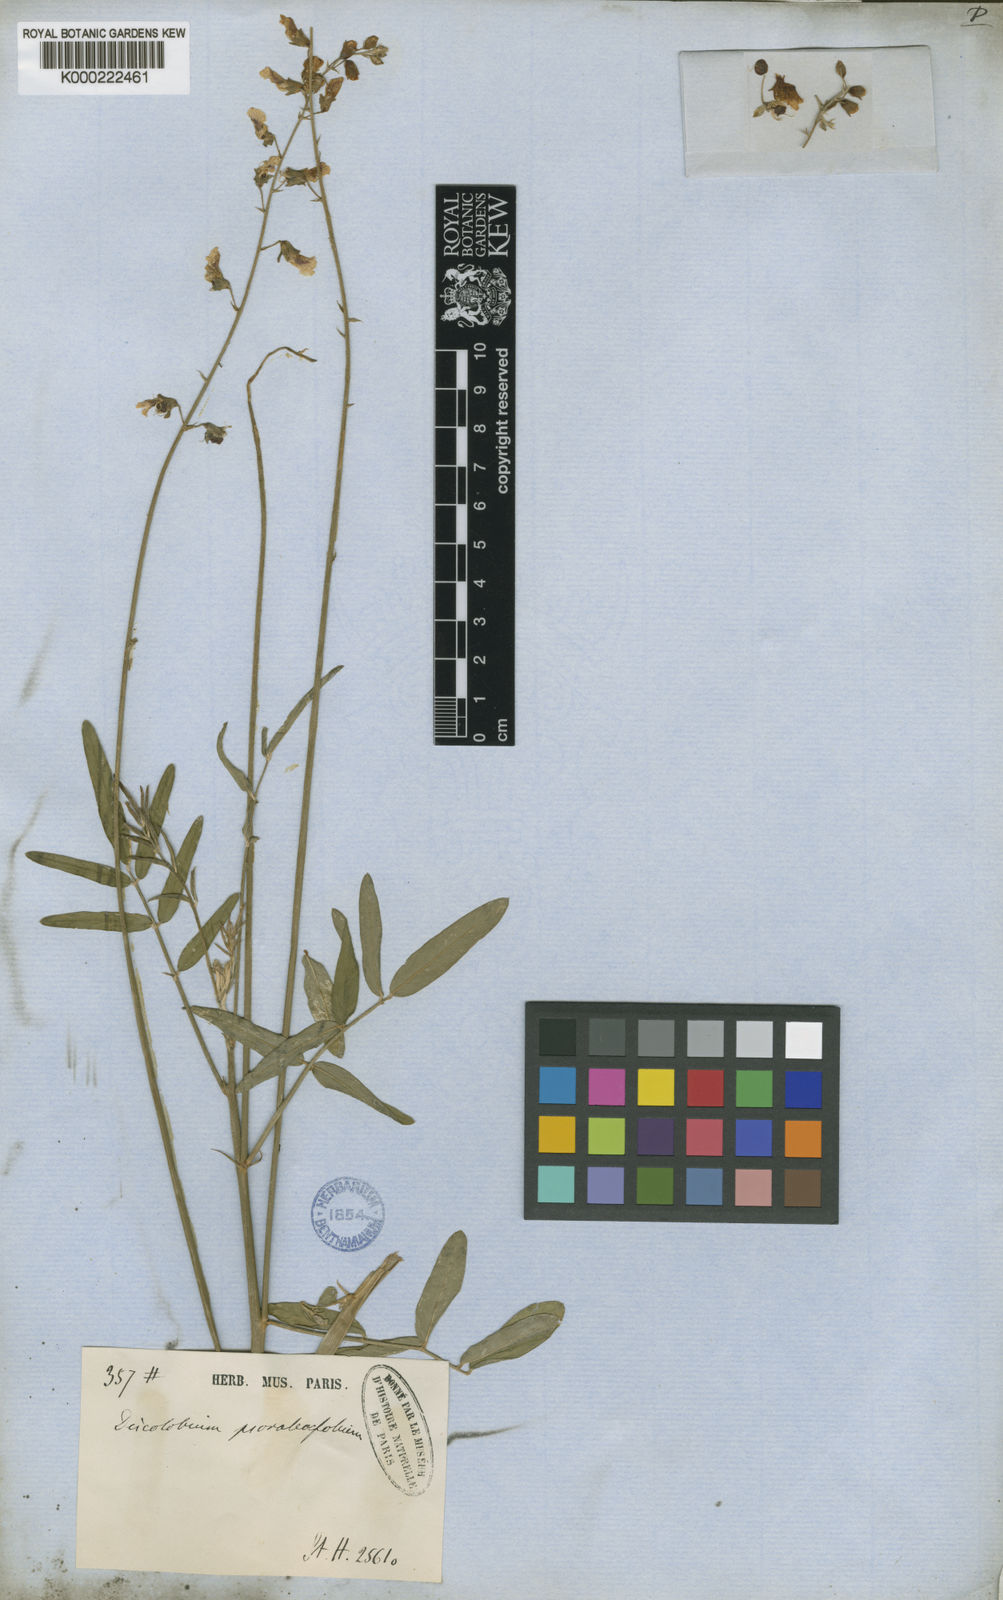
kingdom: Plantae
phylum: Tracheophyta
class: Magnoliopsida
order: Fabales
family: Fabaceae
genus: Discolobium
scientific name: Discolobium psoraleifolium
